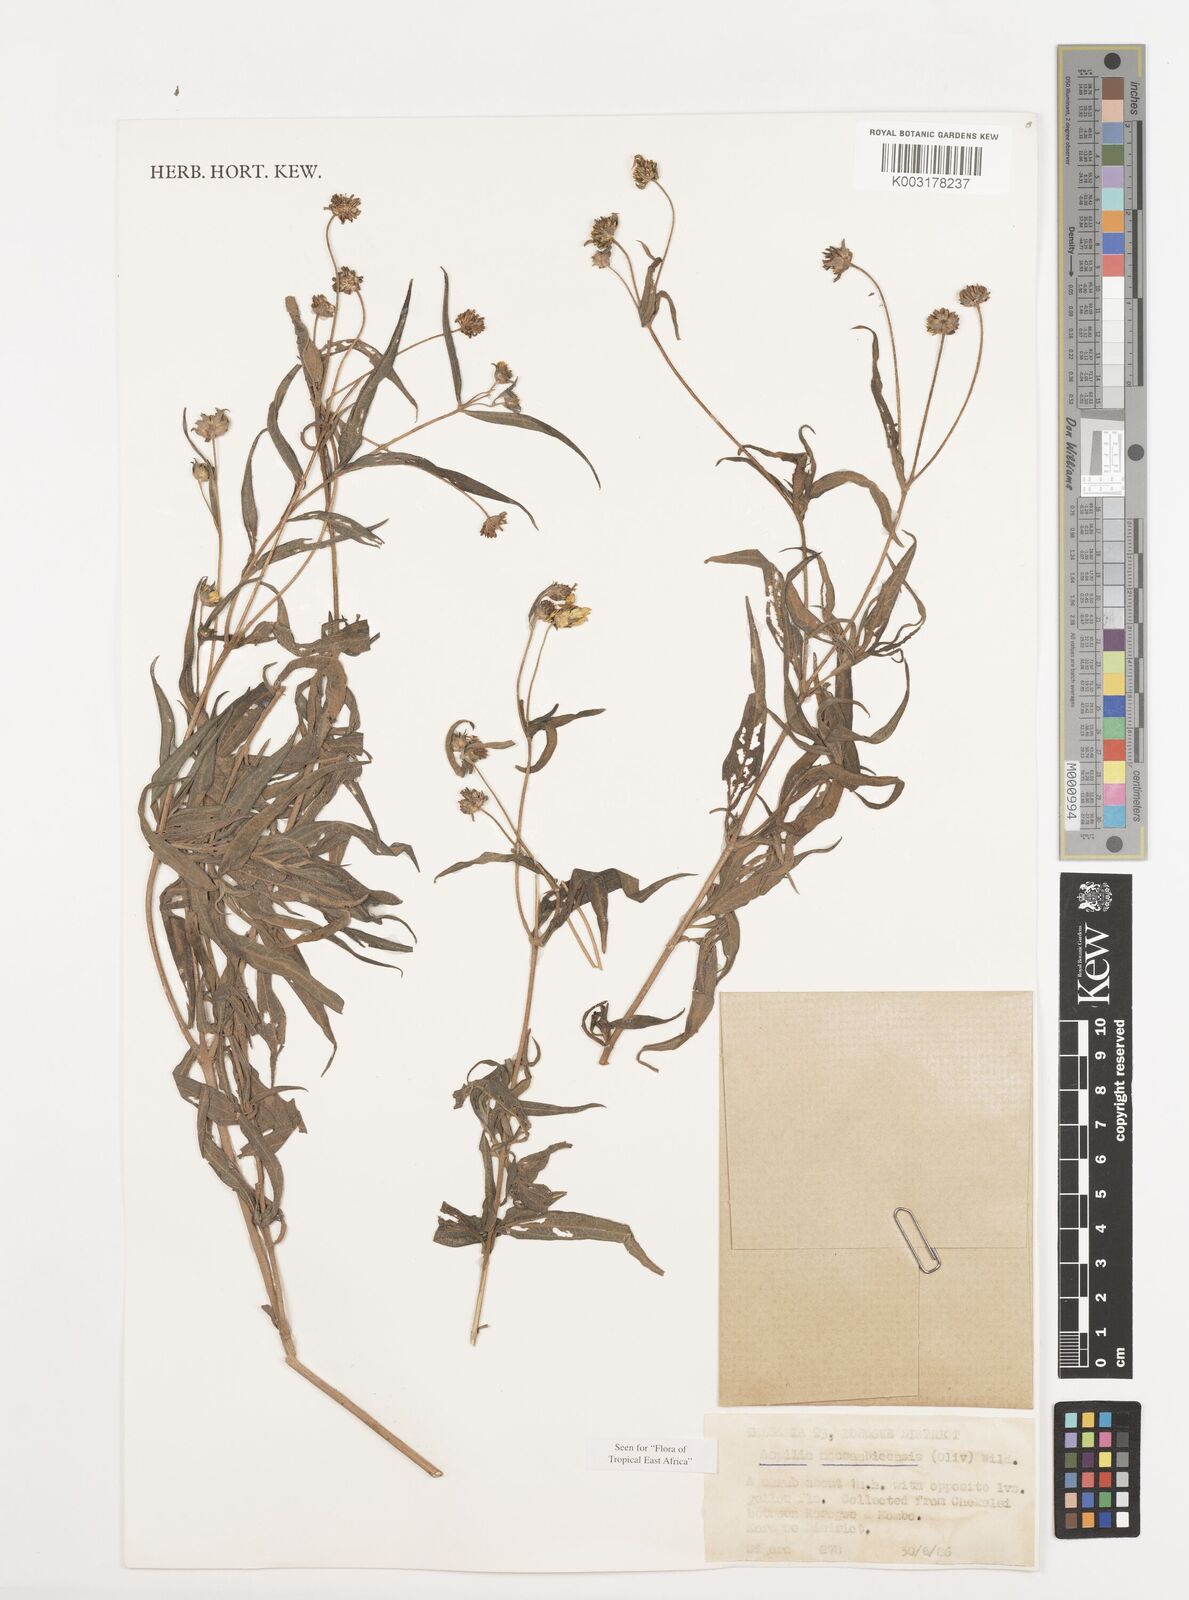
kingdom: Plantae
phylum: Tracheophyta
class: Magnoliopsida
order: Asterales
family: Asteraceae
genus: Aspilia
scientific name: Aspilia mossambicensis
